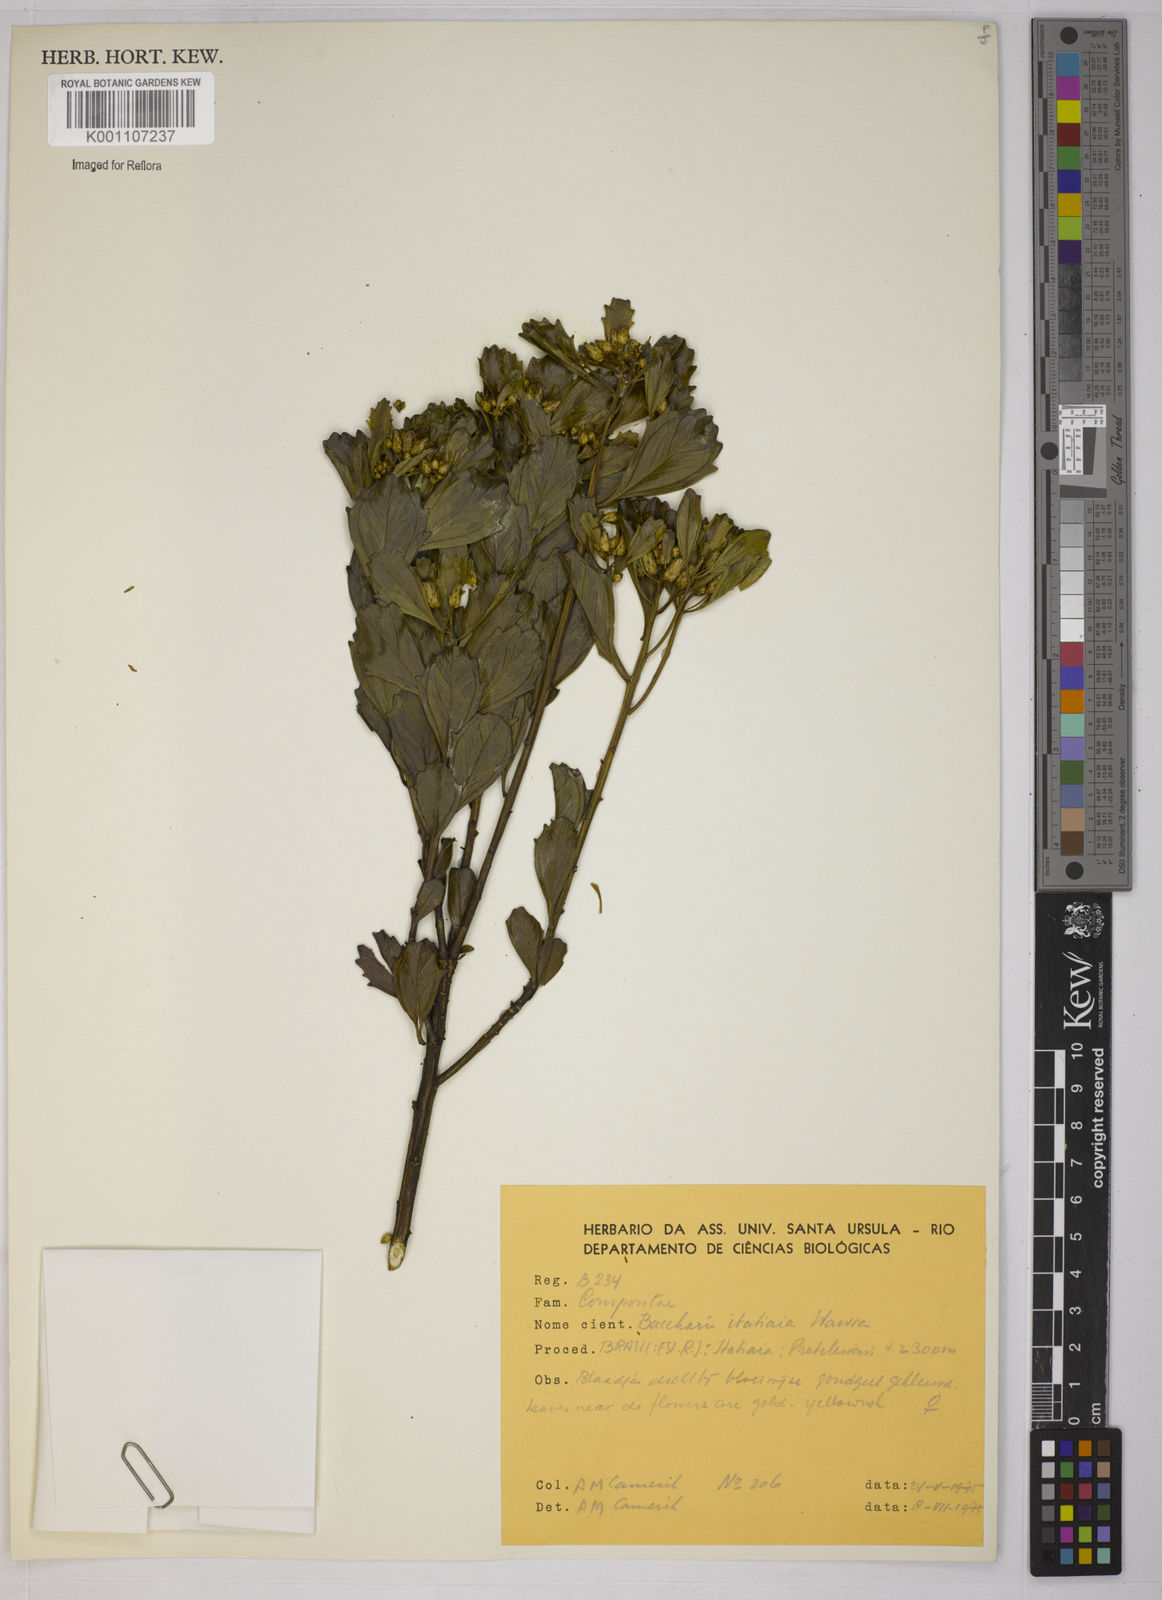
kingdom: Plantae
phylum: Tracheophyta
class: Magnoliopsida
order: Asterales
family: Asteraceae
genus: Baccharis
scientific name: Baccharis itatiaiae
